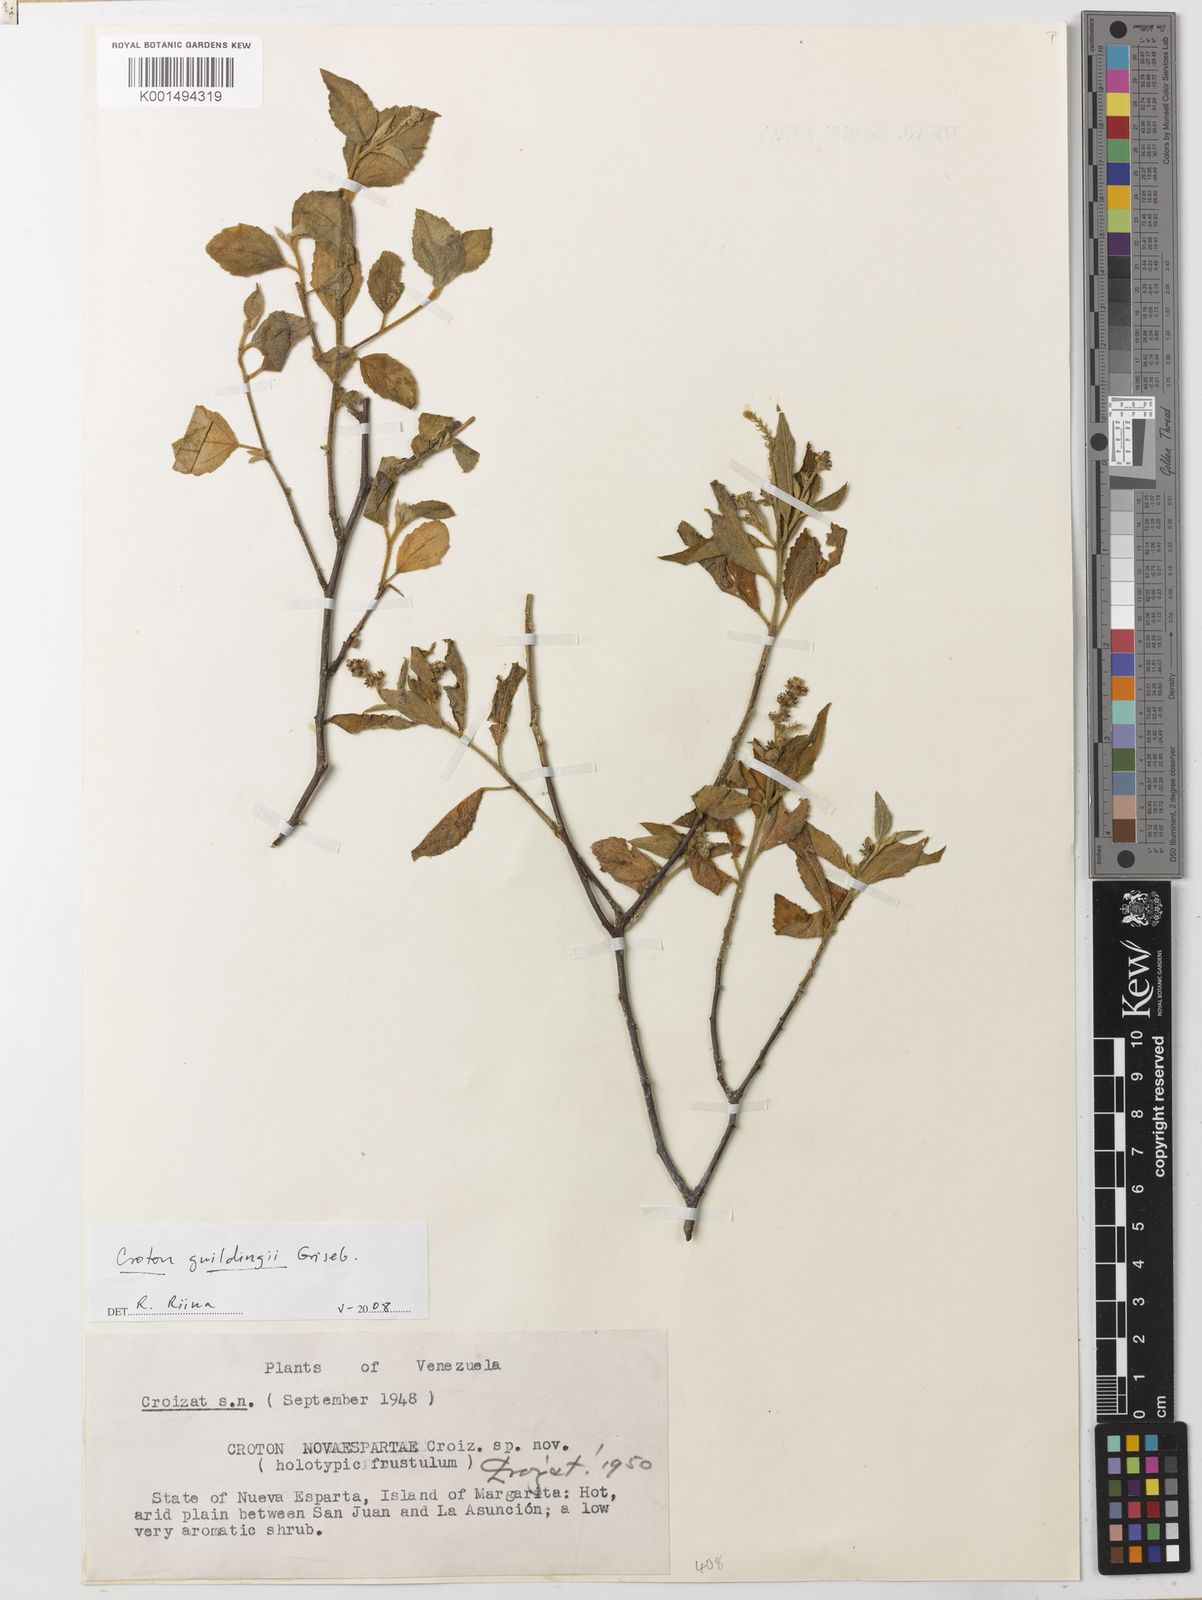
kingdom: Plantae
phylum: Tracheophyta
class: Magnoliopsida
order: Malpighiales
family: Euphorbiaceae
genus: Croton
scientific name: Croton suavis
